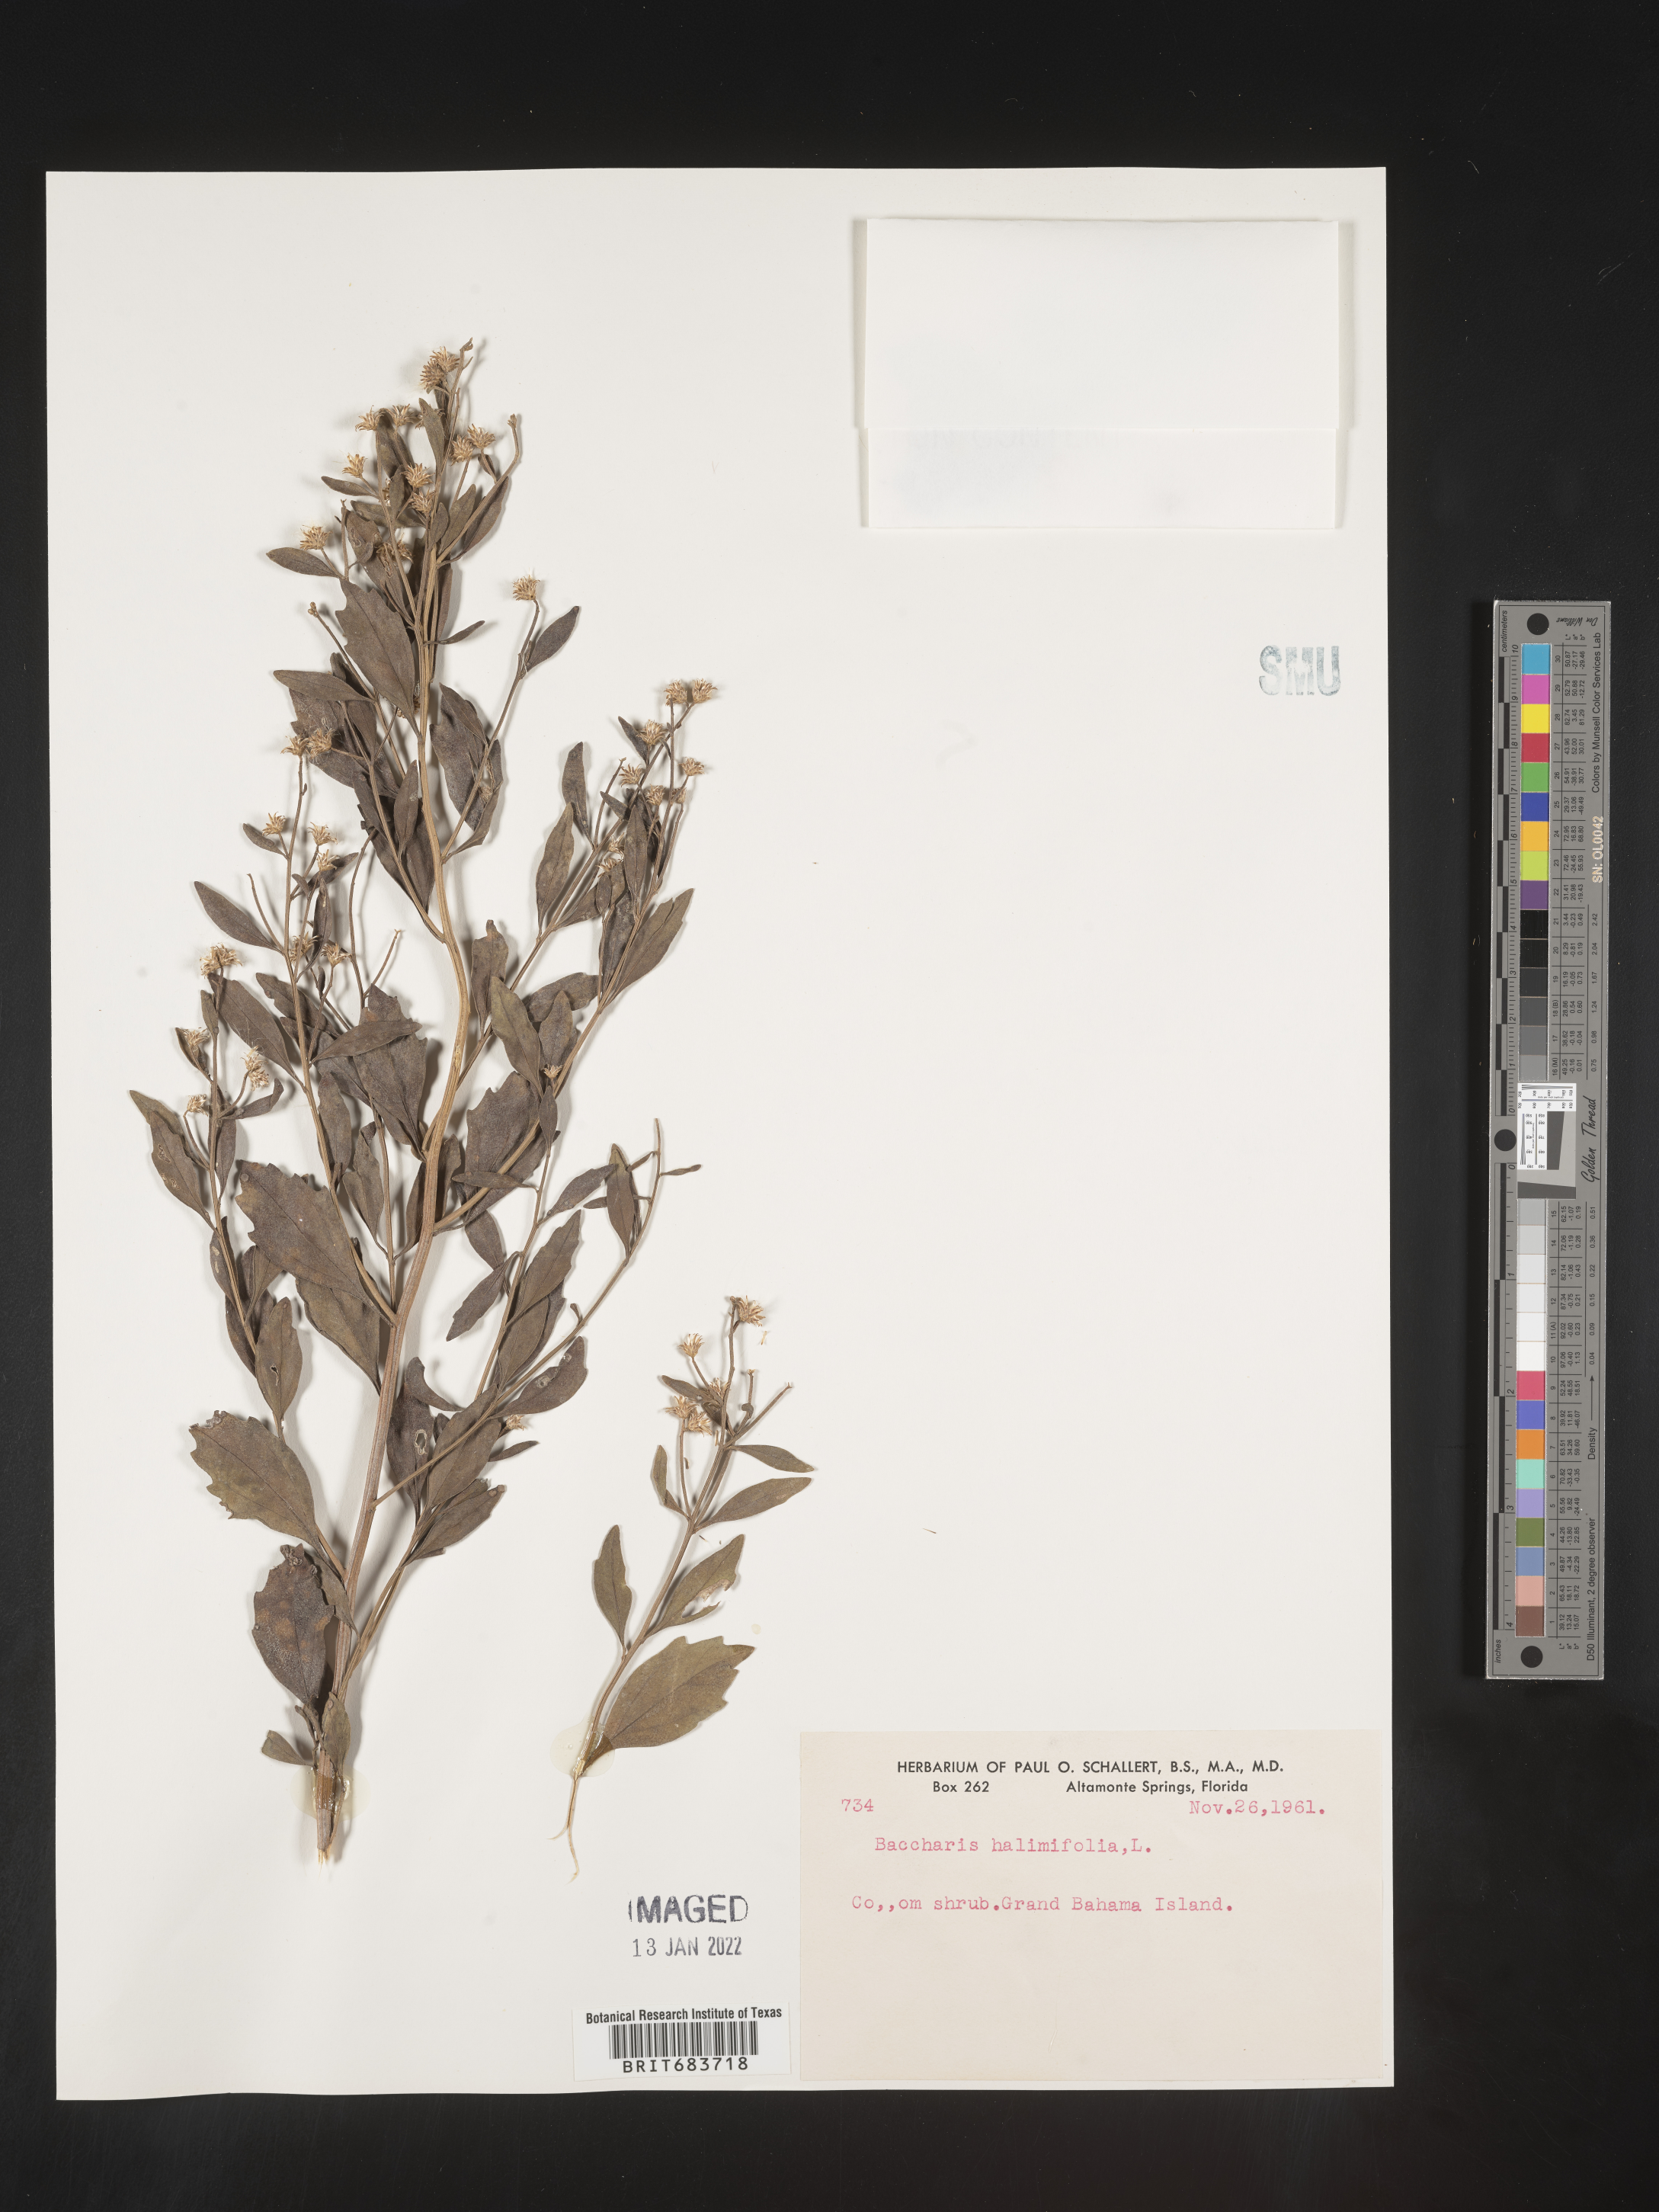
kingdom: Plantae
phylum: Tracheophyta
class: Magnoliopsida
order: Asterales
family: Asteraceae
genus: Baccharis
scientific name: Baccharis
